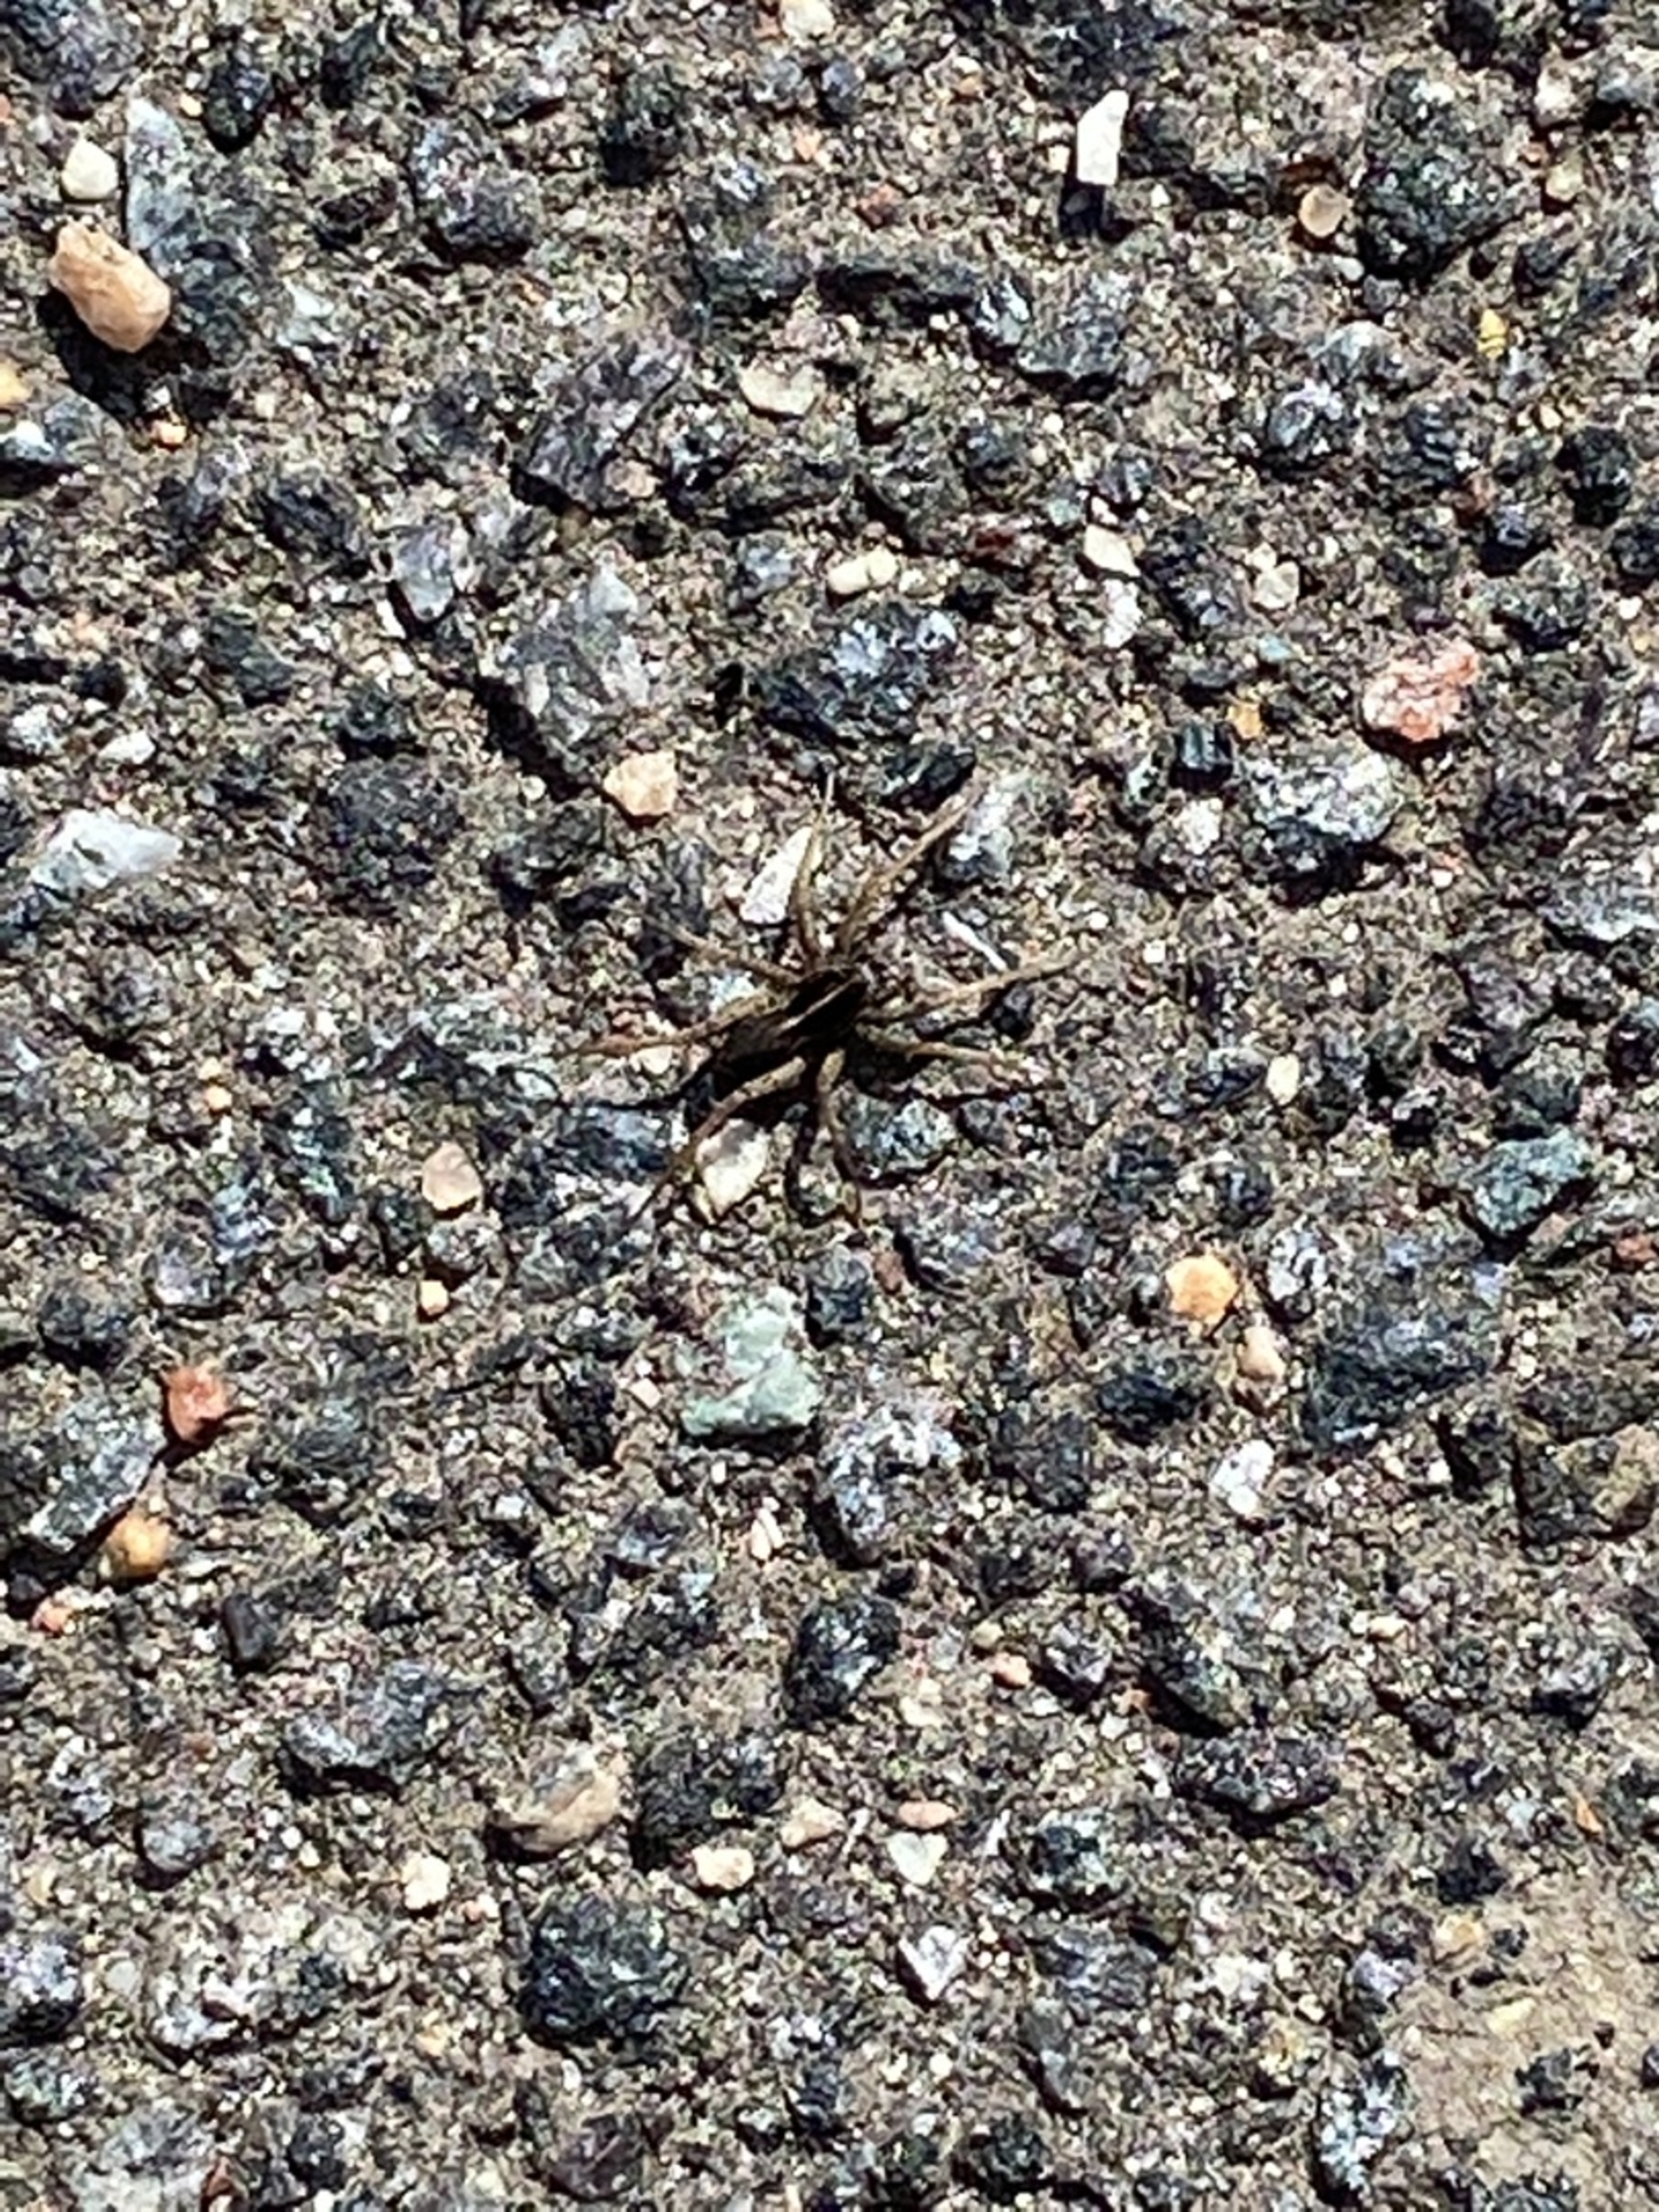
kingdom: Animalia
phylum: Arthropoda
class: Arachnida
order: Araneae
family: Lycosidae
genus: Pardosa
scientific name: Pardosa
